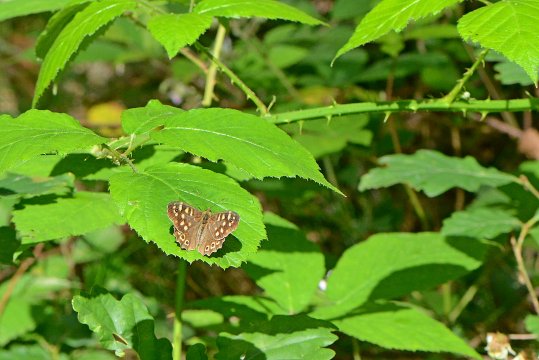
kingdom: Animalia
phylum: Arthropoda
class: Insecta
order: Lepidoptera
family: Nymphalidae
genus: Aphantopus
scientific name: Aphantopus hyperantus
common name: Ringlet
